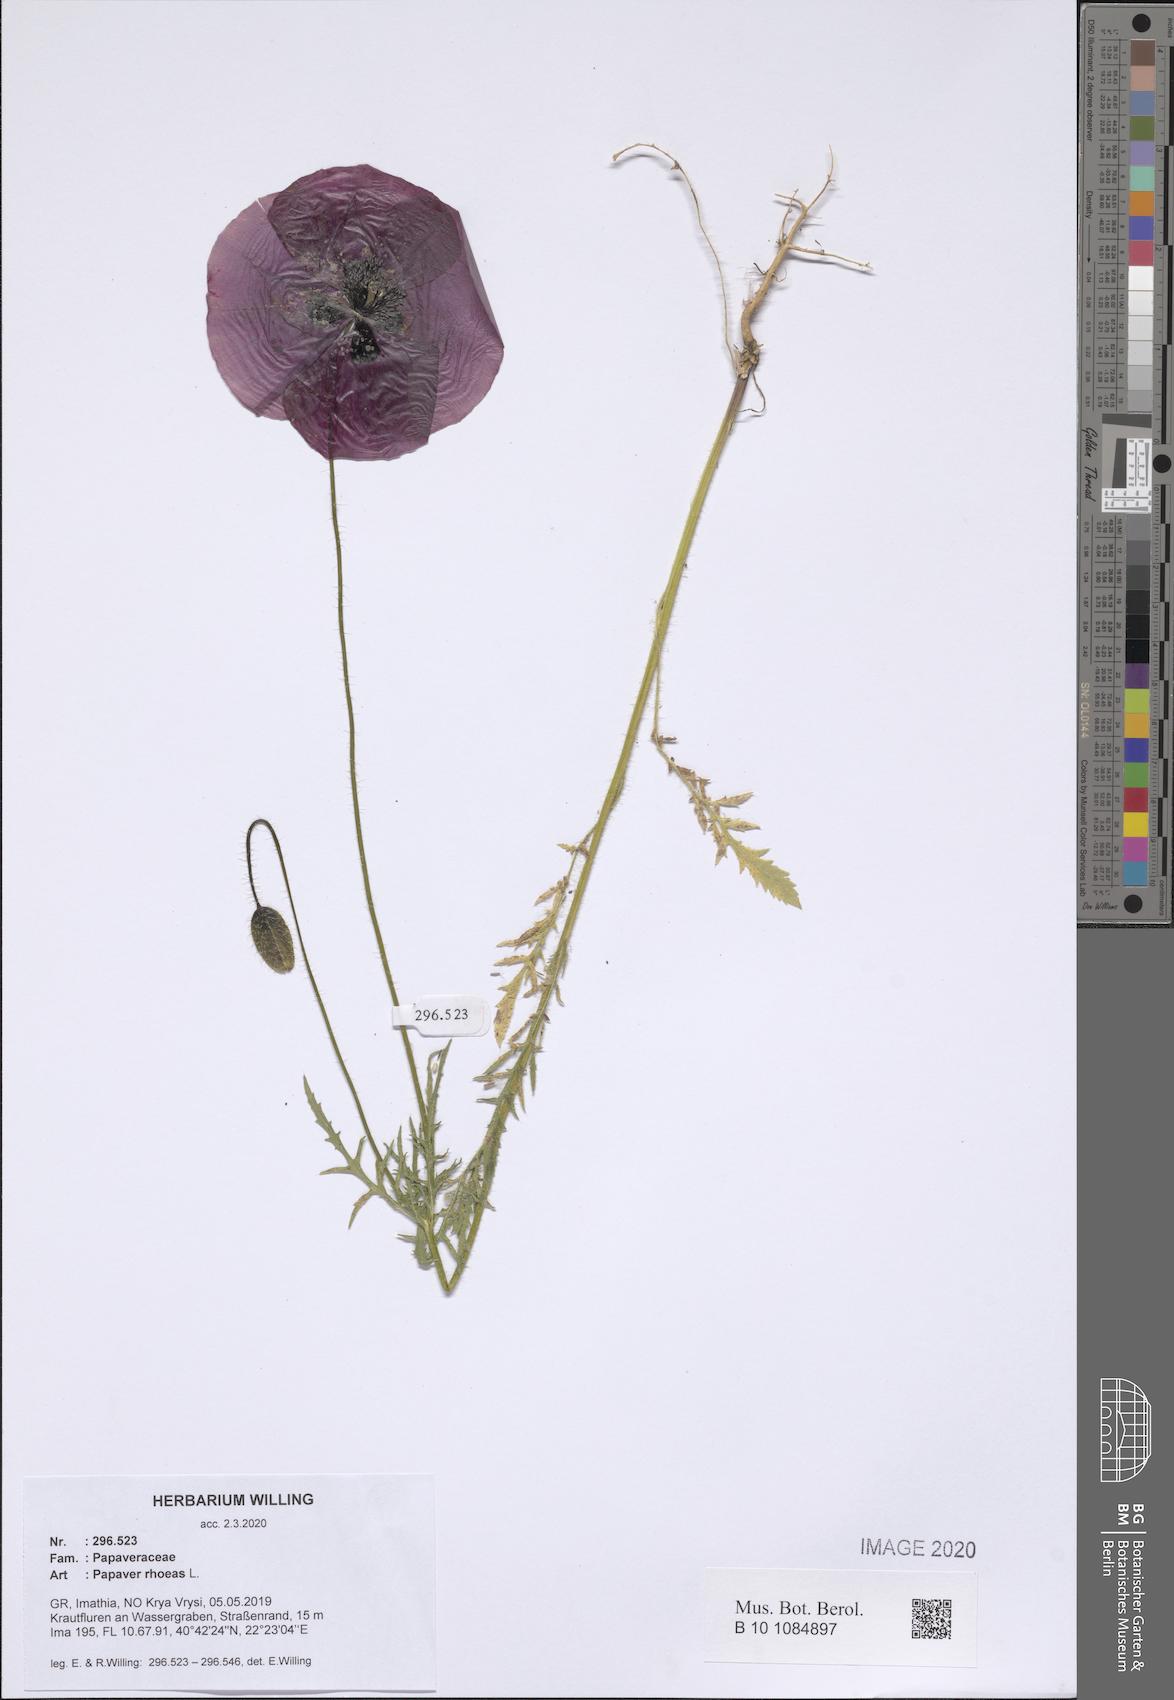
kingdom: Plantae
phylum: Tracheophyta
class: Magnoliopsida
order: Ranunculales
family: Papaveraceae
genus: Papaver
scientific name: Papaver rhoeas
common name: Corn poppy
